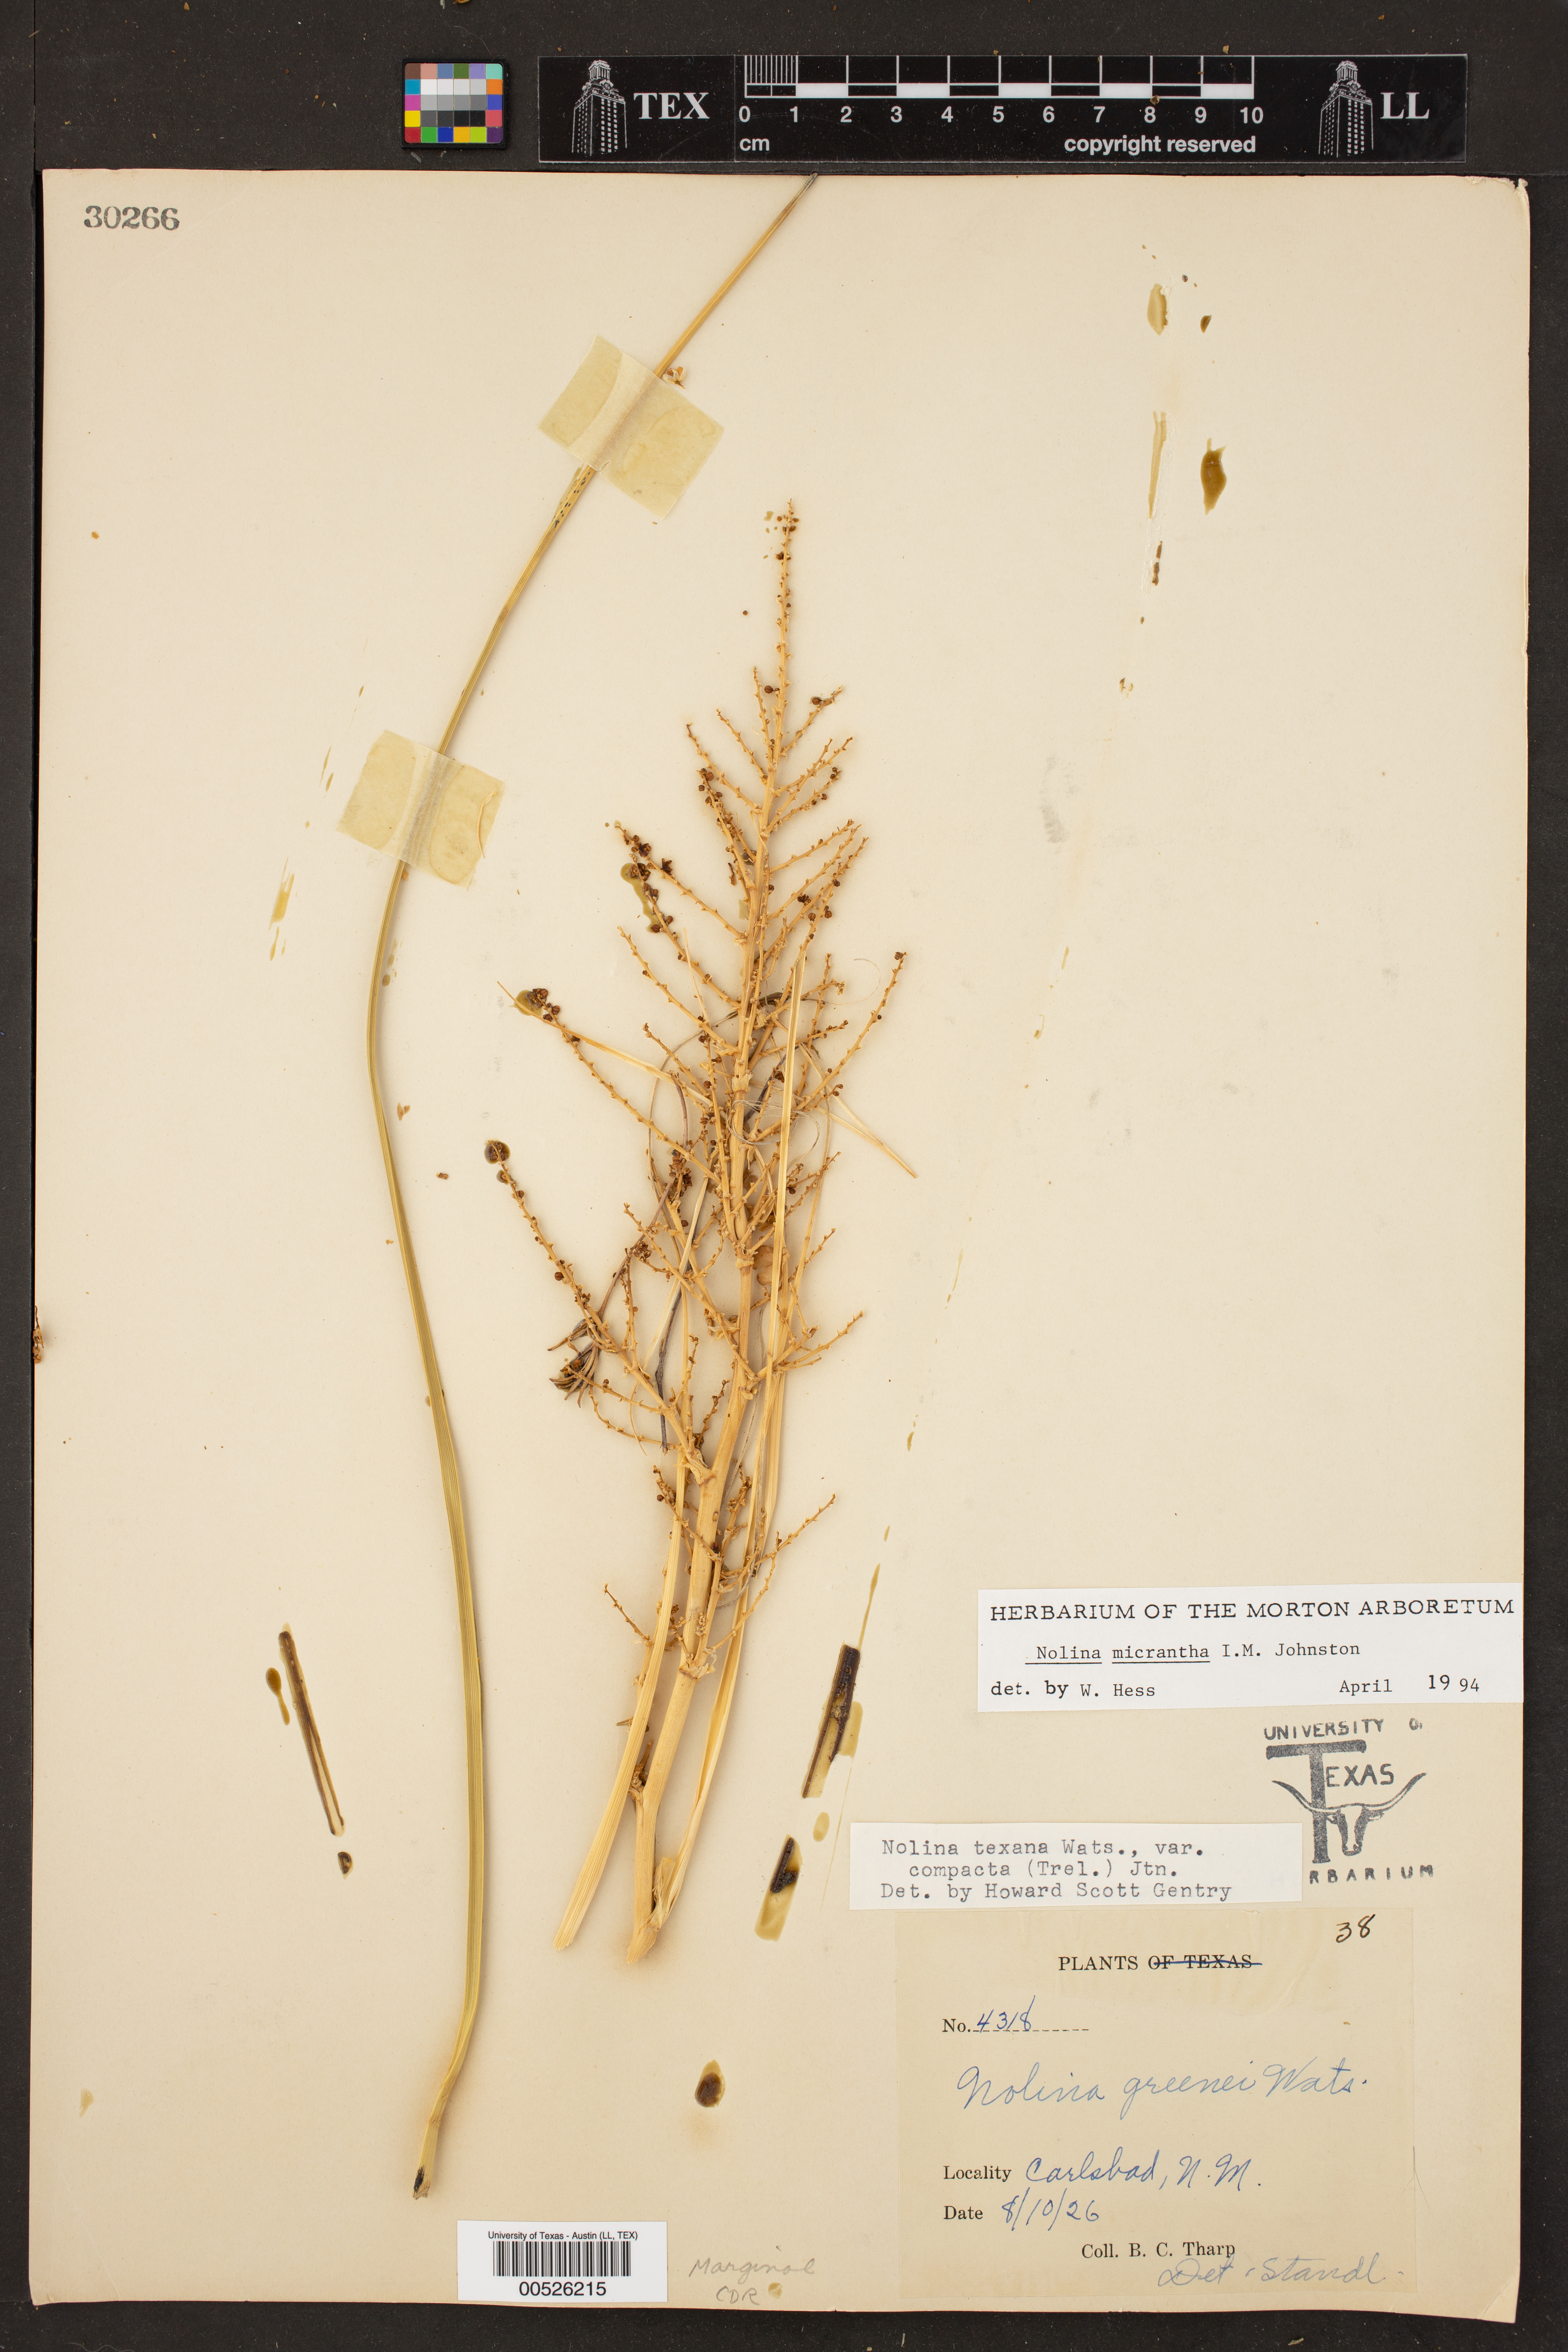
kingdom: Plantae
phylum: Tracheophyta
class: Liliopsida
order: Asparagales
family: Asparagaceae
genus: Nolina
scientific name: Nolina micrantha
